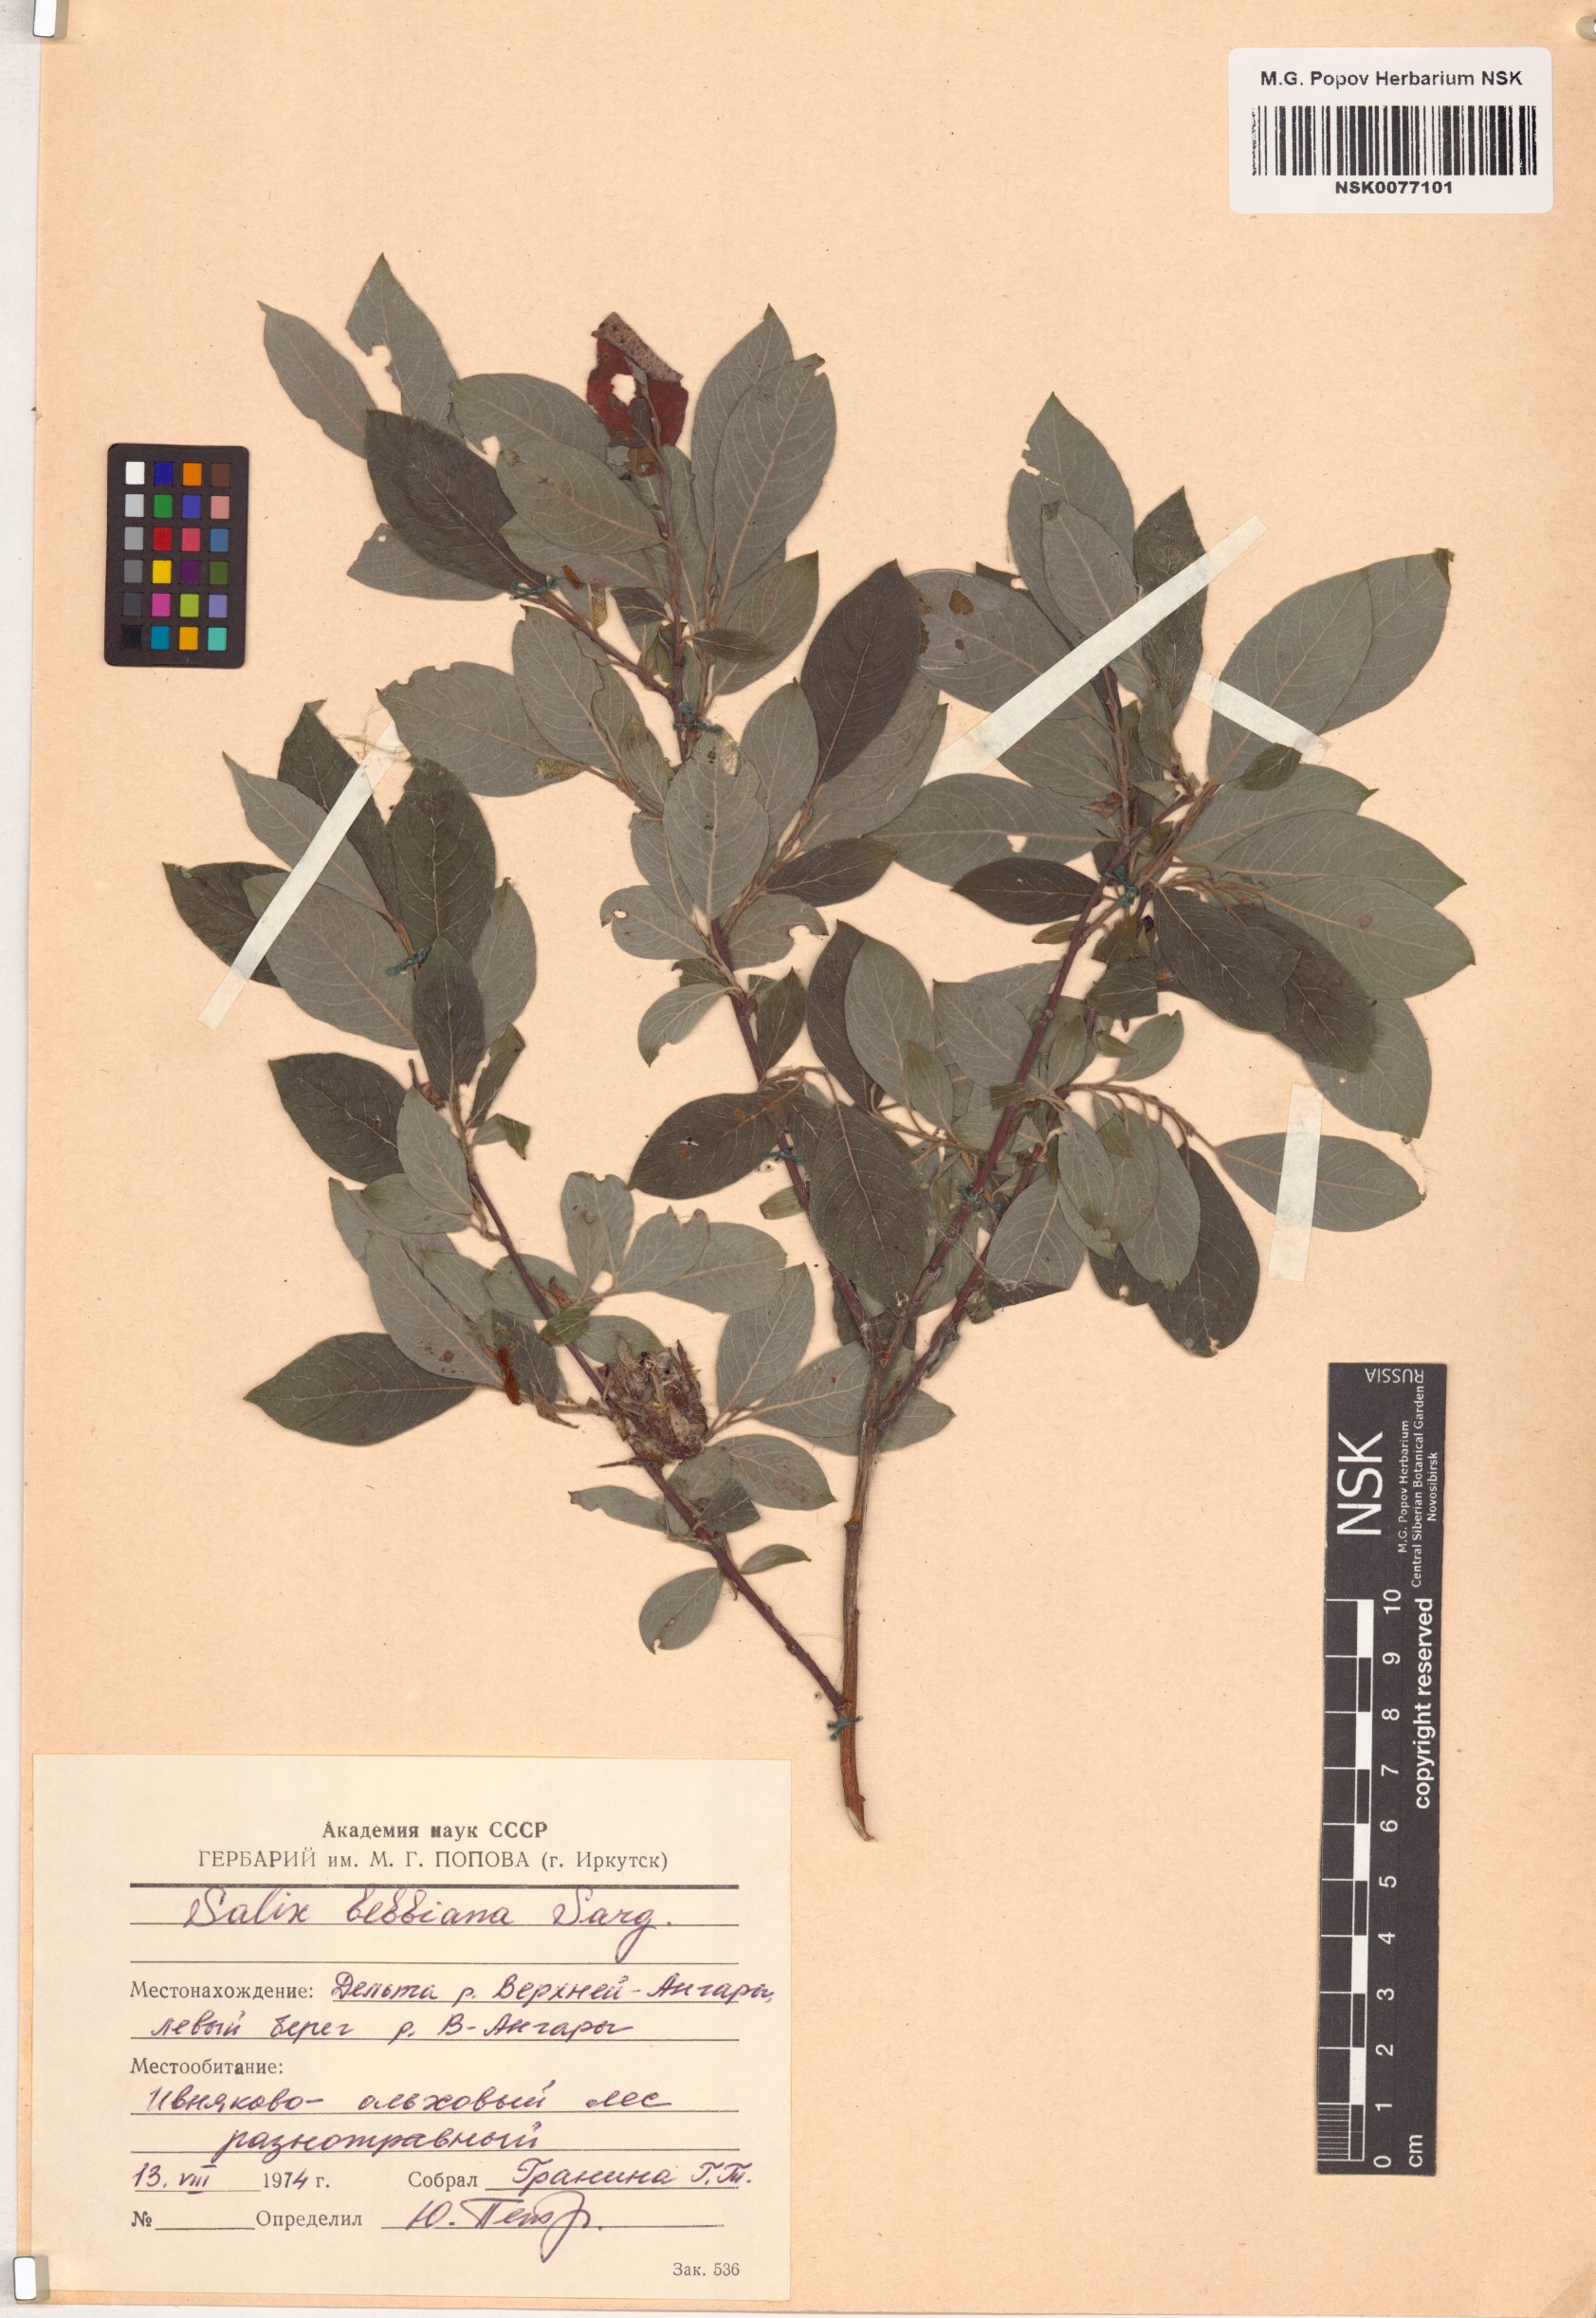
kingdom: Plantae
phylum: Tracheophyta
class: Magnoliopsida
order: Malpighiales
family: Salicaceae
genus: Salix
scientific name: Salix bebbiana
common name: Bebb's willow
